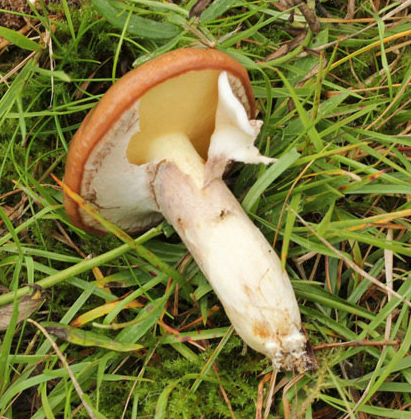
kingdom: Fungi
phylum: Basidiomycota
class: Agaricomycetes
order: Boletales
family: Suillaceae
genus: Suillus
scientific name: Suillus luteus
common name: brungul slimrørhat
